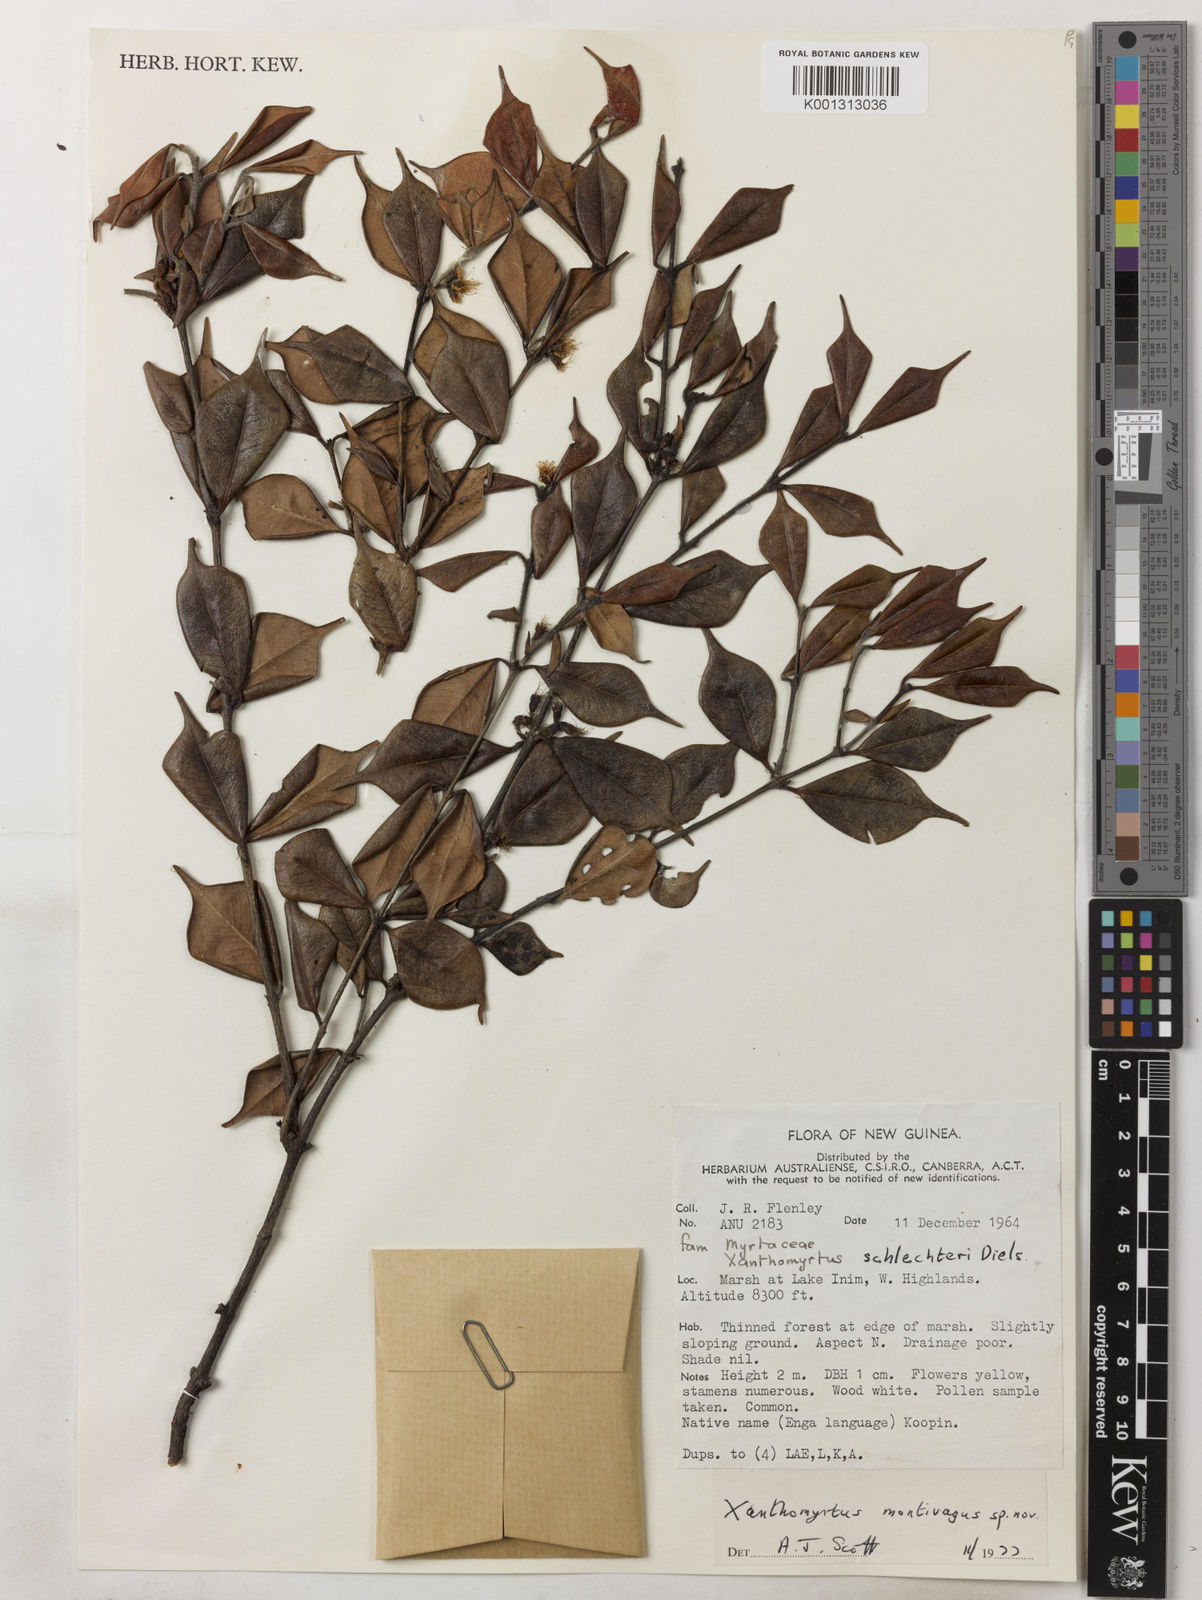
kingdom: Plantae
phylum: Tracheophyta
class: Magnoliopsida
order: Myrtales
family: Myrtaceae
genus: Xanthomyrtus
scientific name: Xanthomyrtus montivaga
